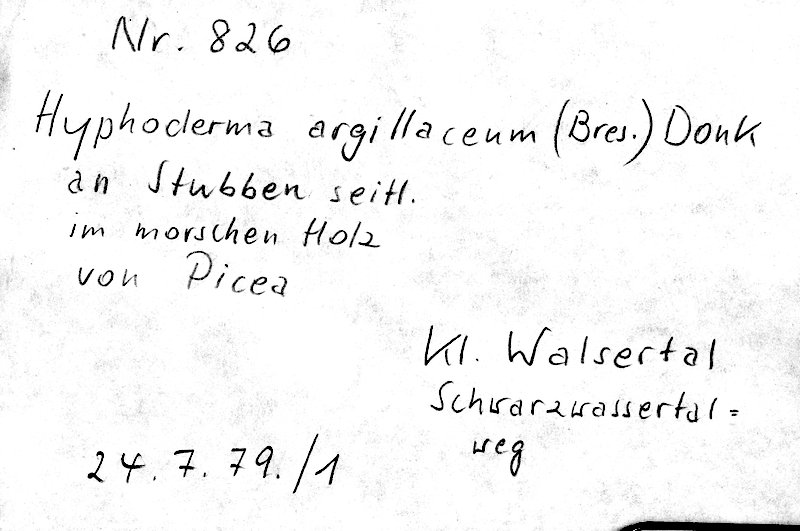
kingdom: Fungi
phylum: Basidiomycota
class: Agaricomycetes
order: Hymenochaetales
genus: Kurtia
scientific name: Kurtia argillacea
